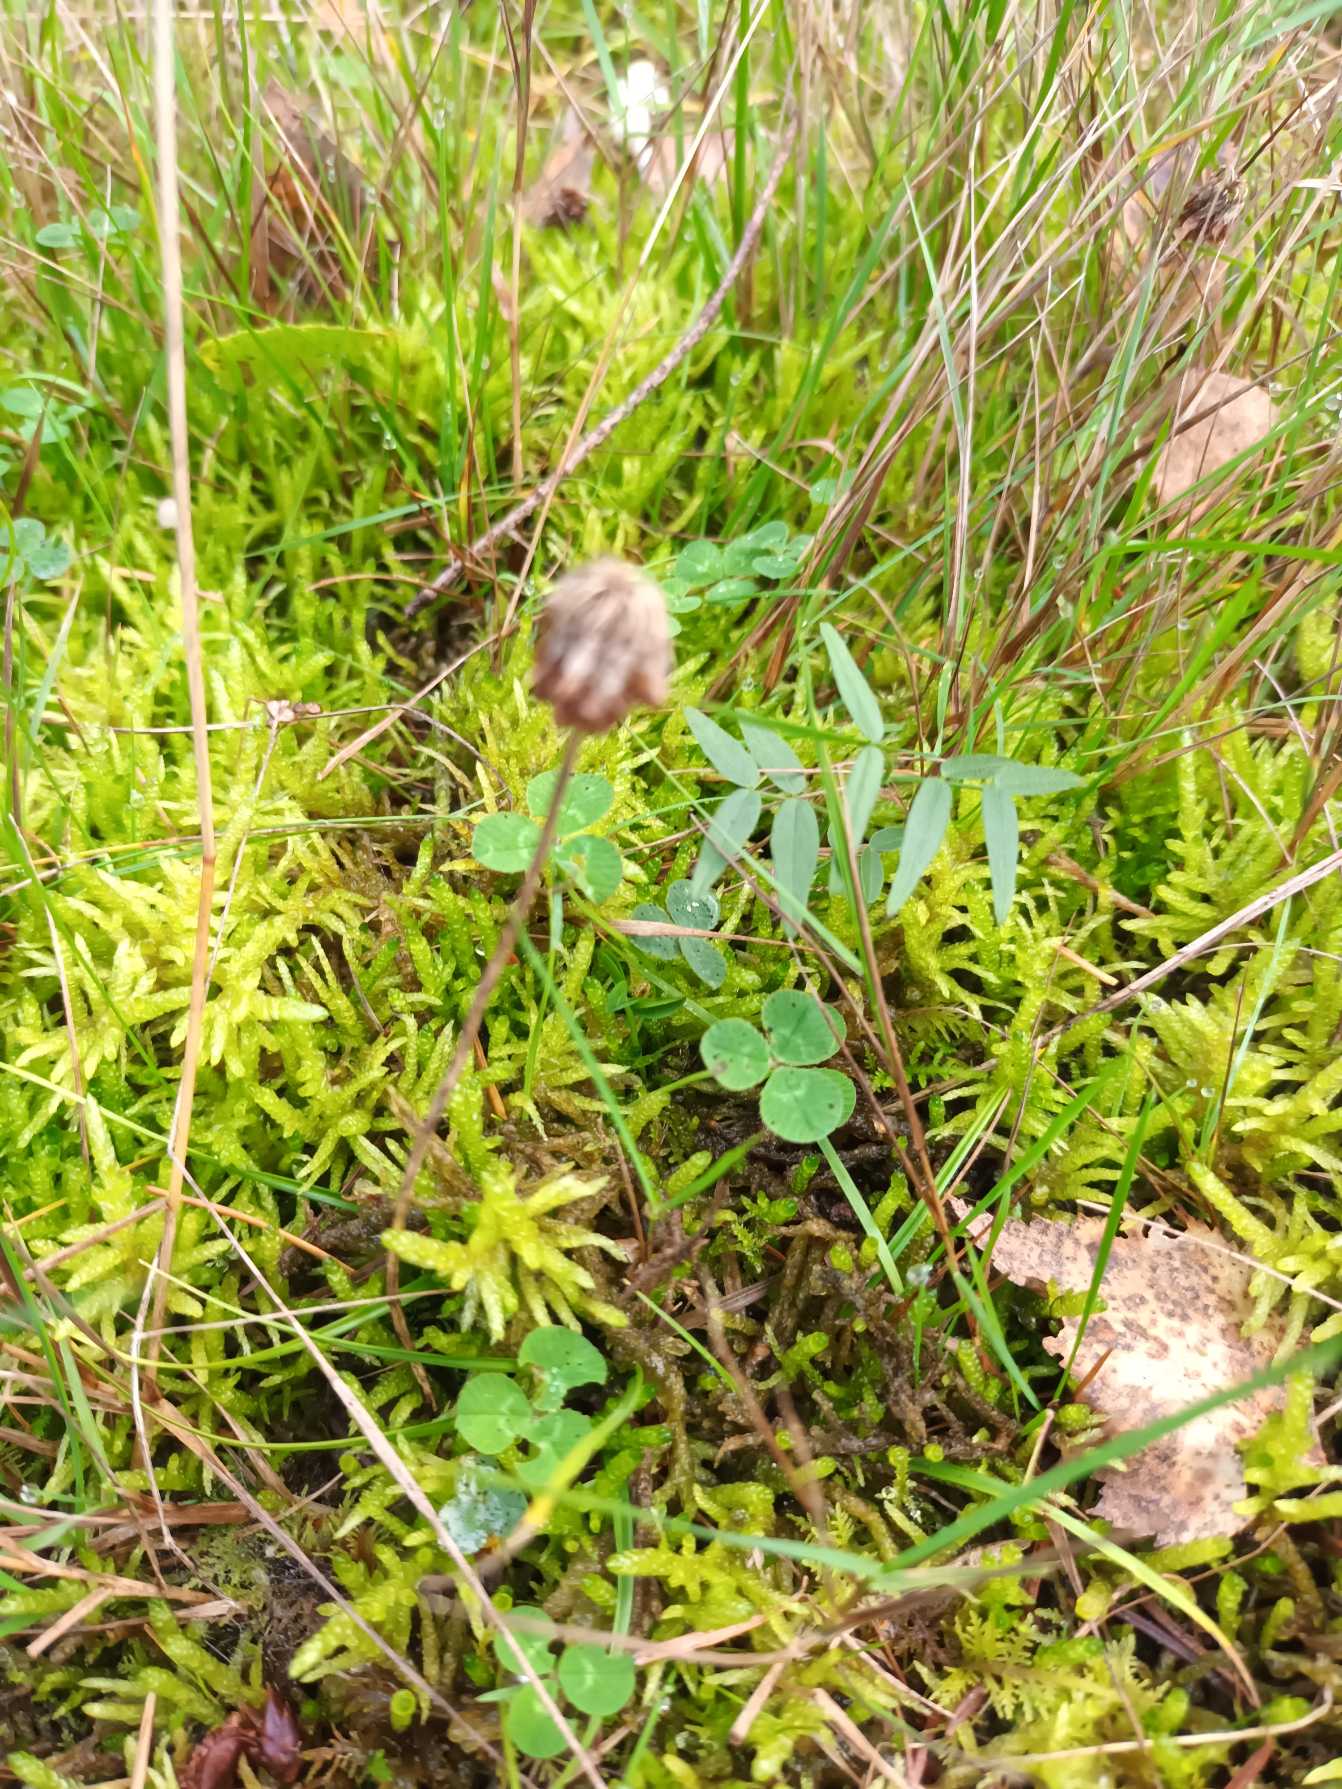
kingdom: Plantae
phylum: Tracheophyta
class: Magnoliopsida
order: Fabales
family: Fabaceae
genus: Trifolium
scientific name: Trifolium repens
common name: Hvid-kløver
